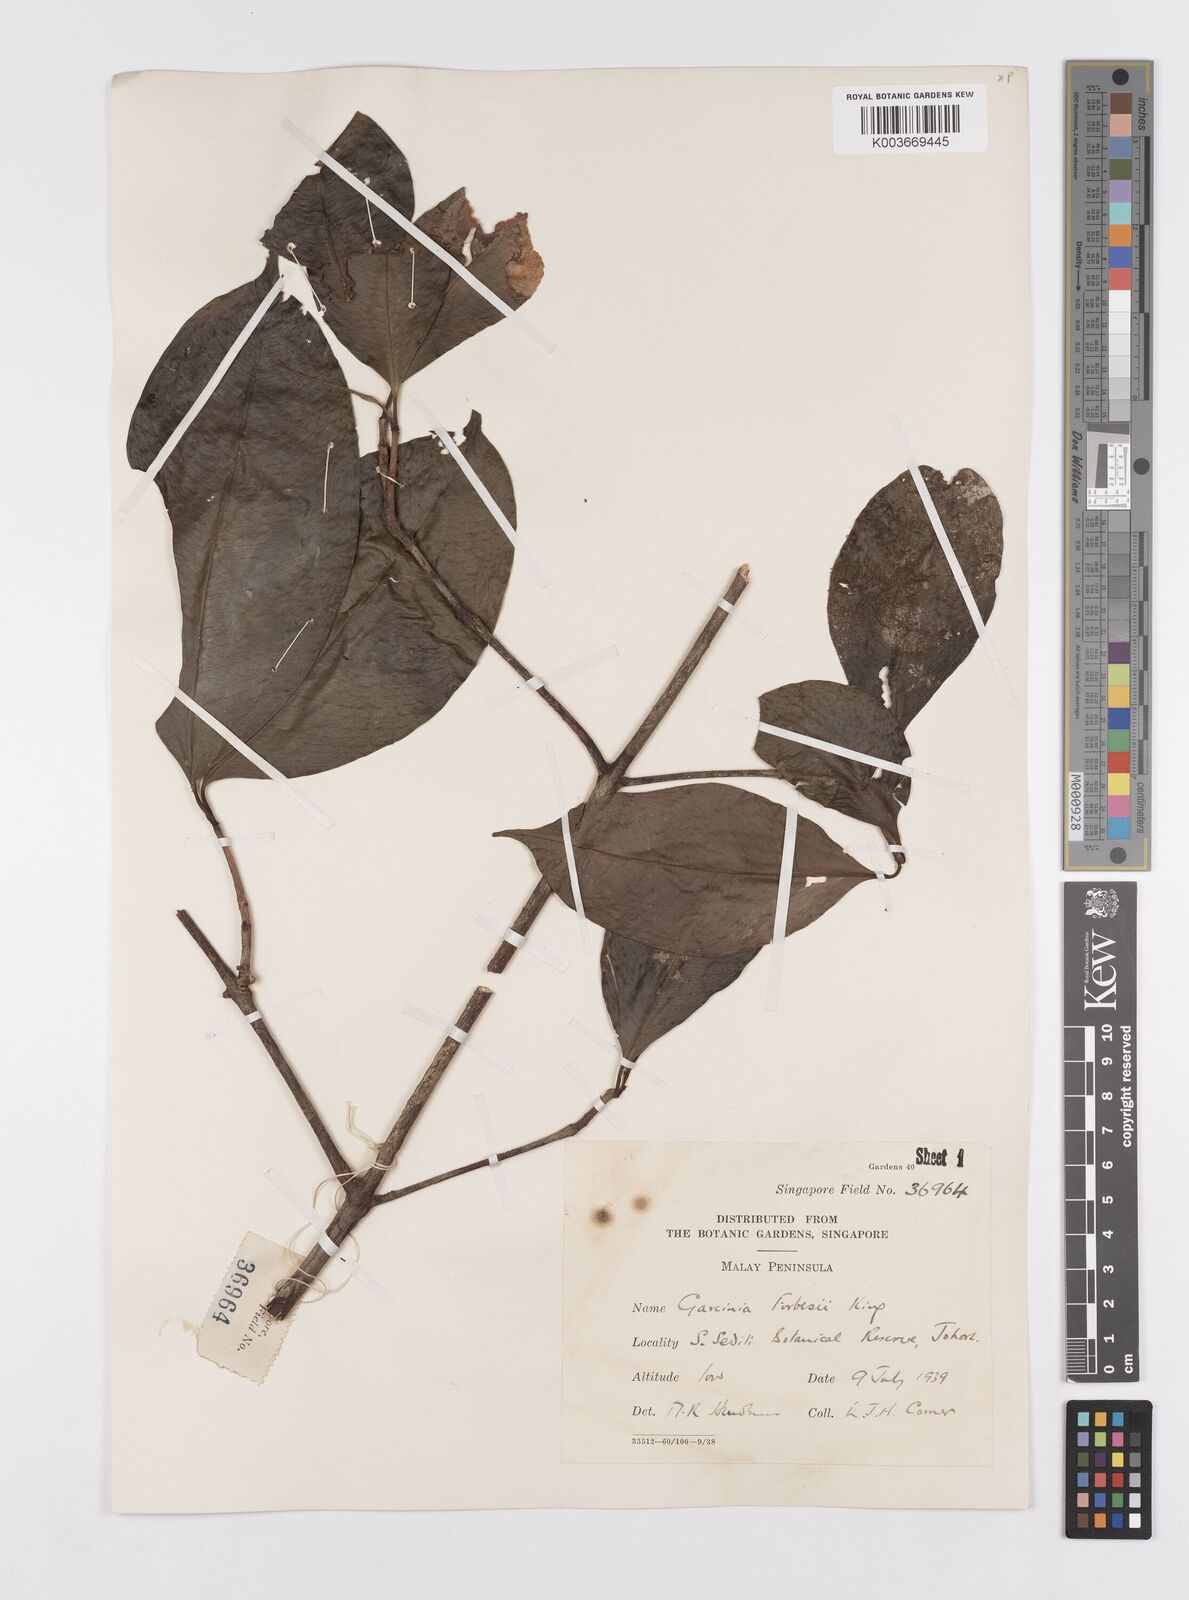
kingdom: Plantae
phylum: Tracheophyta
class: Magnoliopsida
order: Malpighiales
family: Clusiaceae
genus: Garcinia
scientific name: Garcinia forbesii
